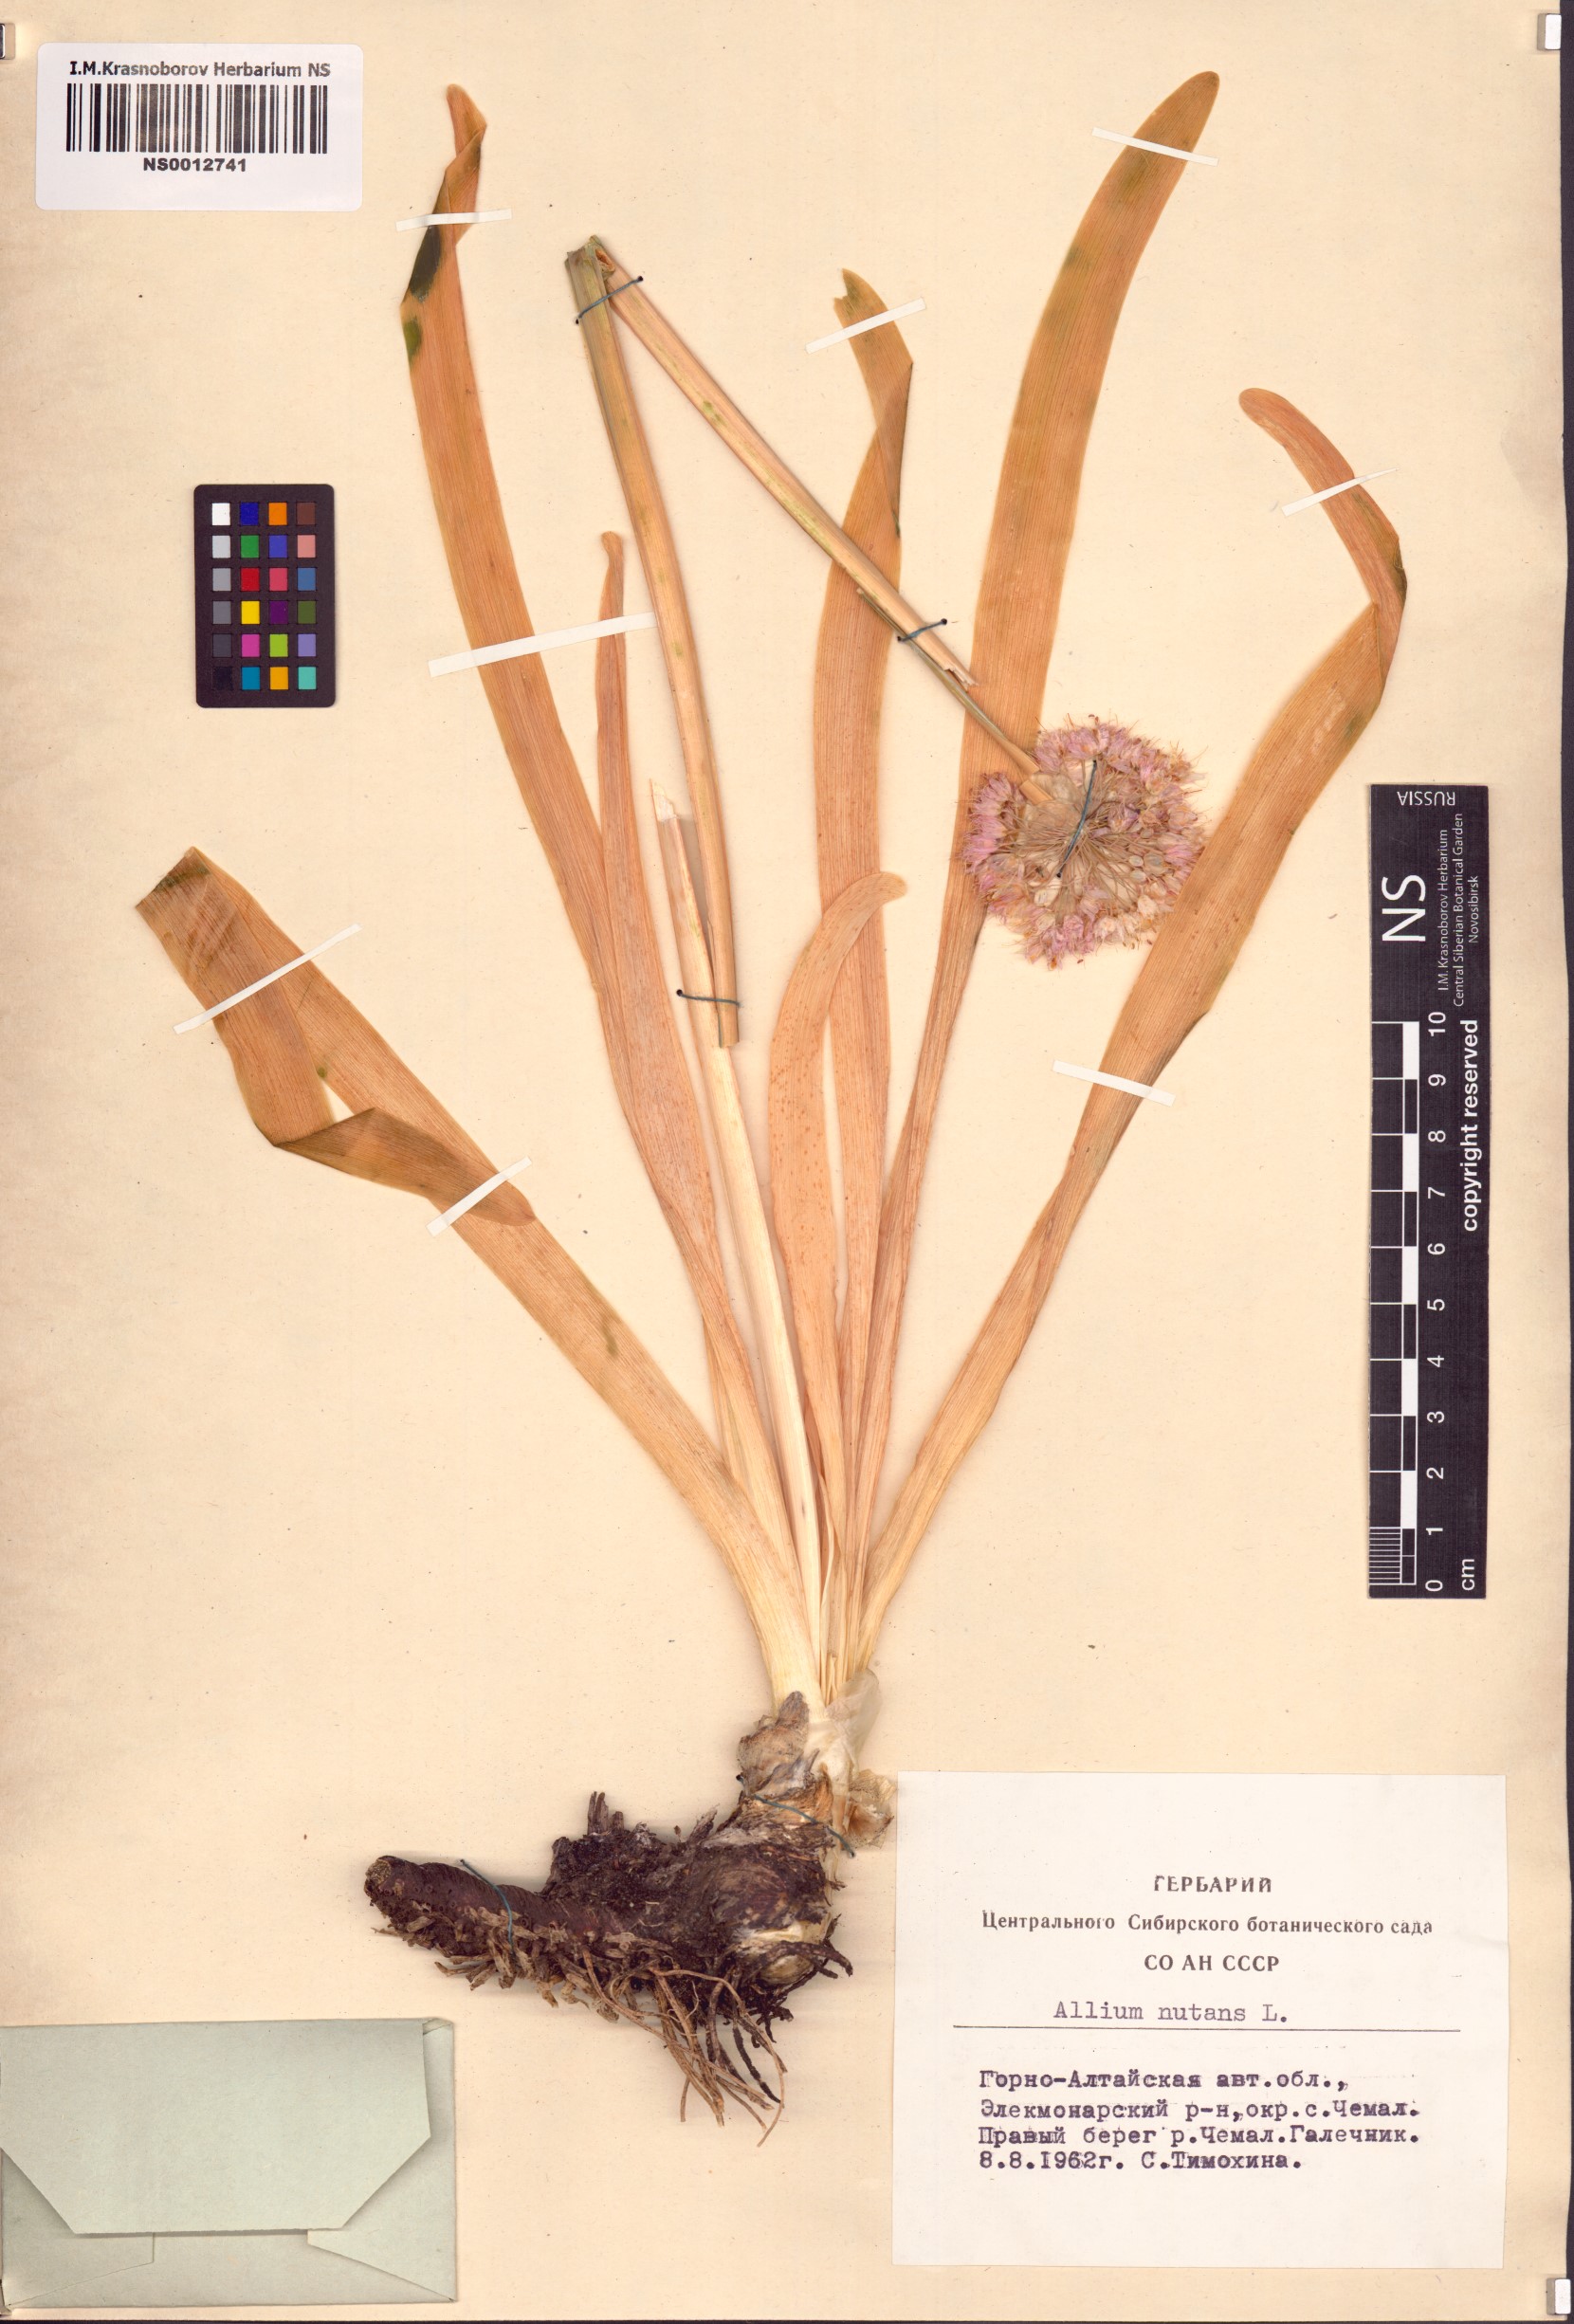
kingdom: Plantae
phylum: Tracheophyta
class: Liliopsida
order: Asparagales
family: Amaryllidaceae
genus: Allium
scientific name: Allium nutans
